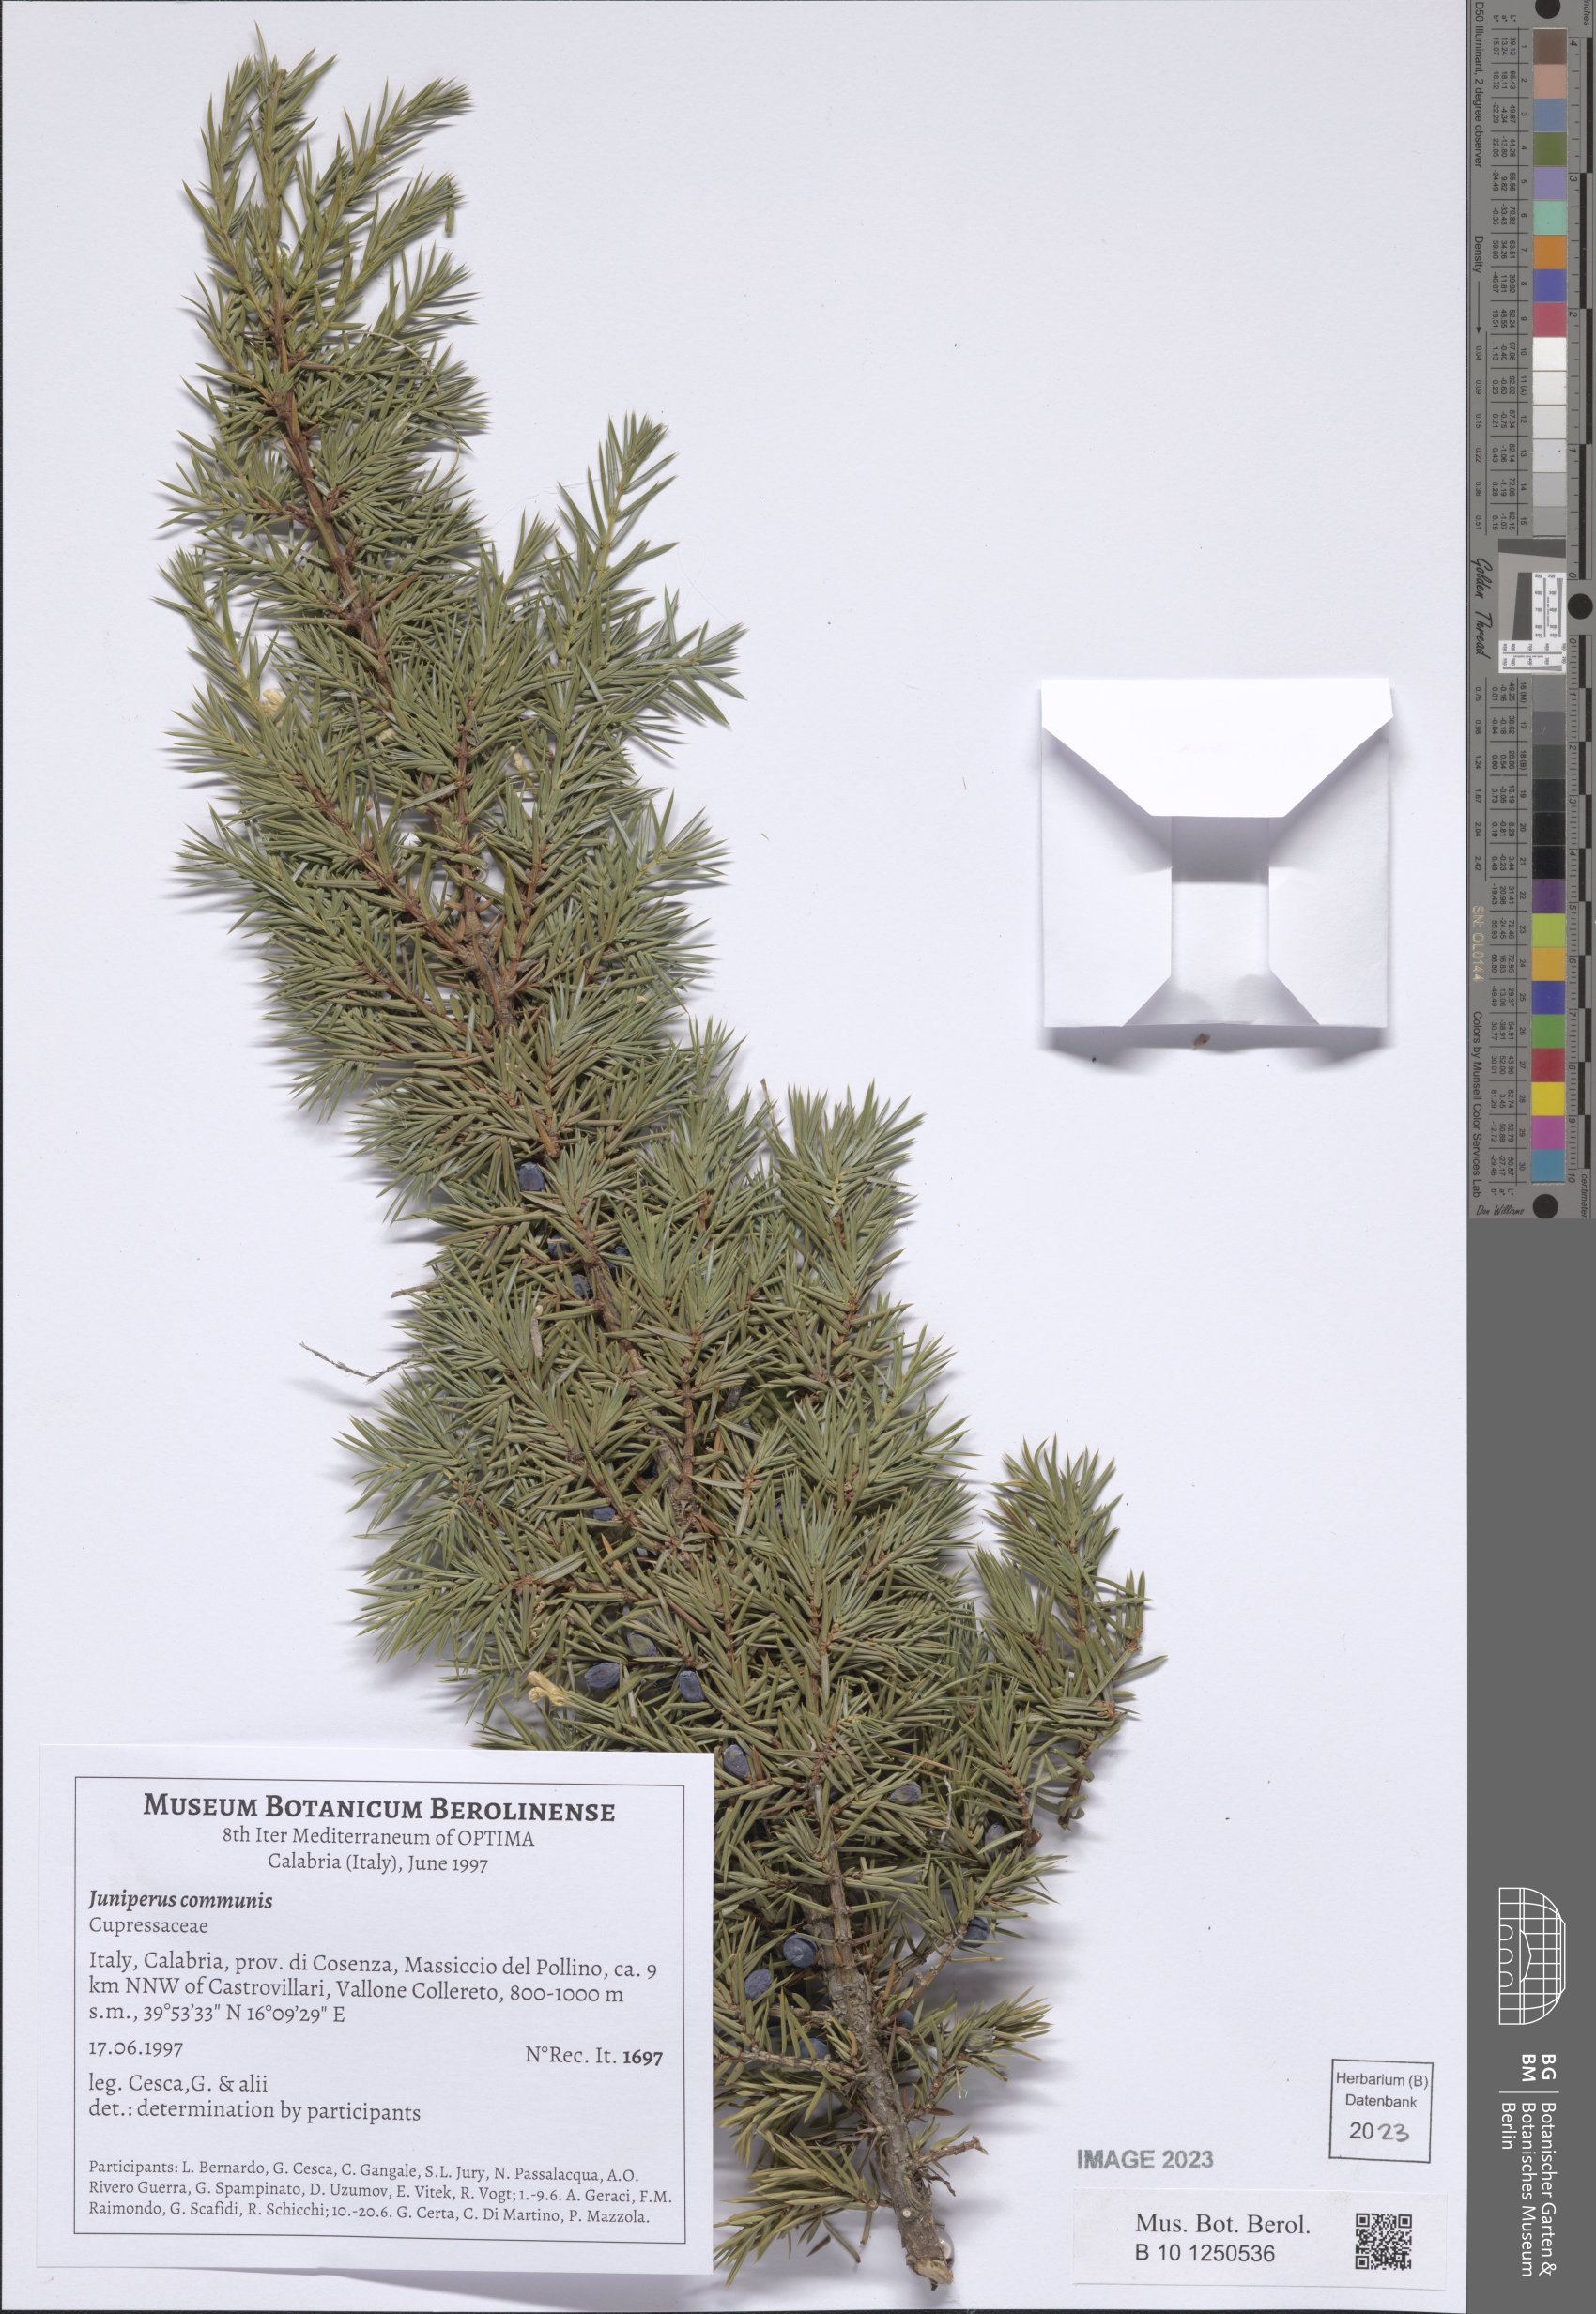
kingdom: Plantae
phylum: Tracheophyta
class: Pinopsida
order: Pinales
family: Cupressaceae
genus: Juniperus
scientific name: Juniperus communis
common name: Common juniper
